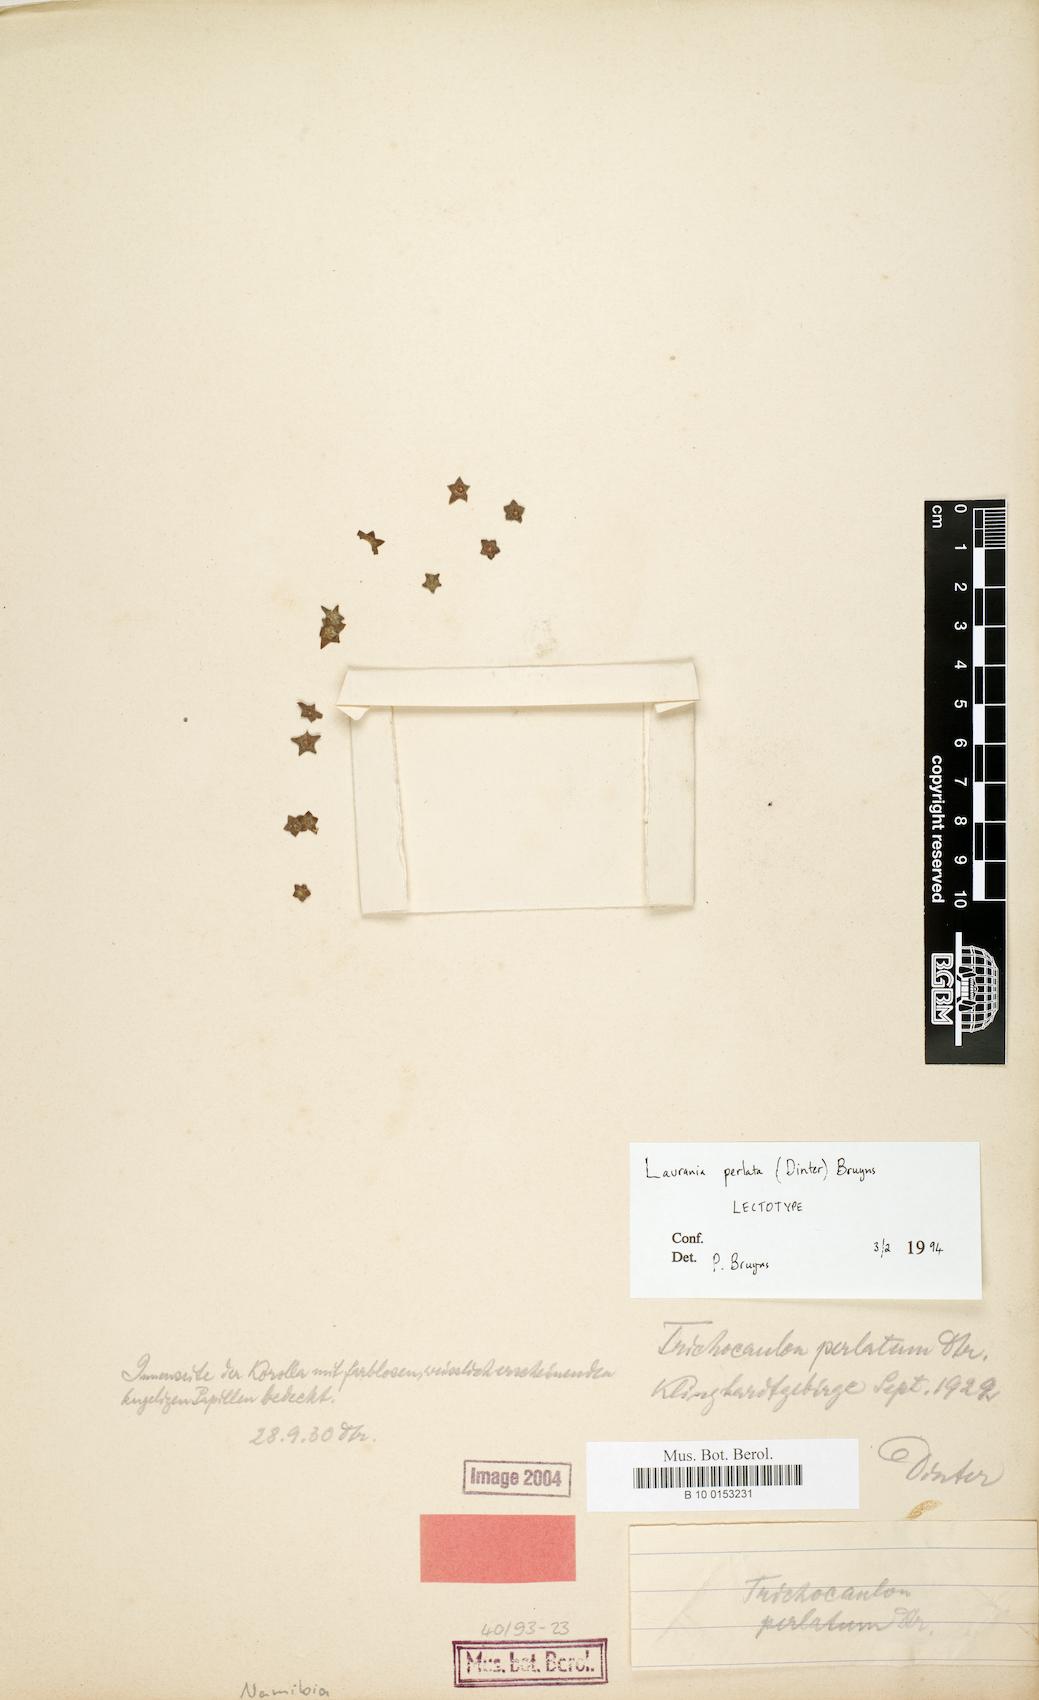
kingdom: Plantae
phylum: Tracheophyta
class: Magnoliopsida
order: Gentianales
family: Apocynaceae
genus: Ceropegia
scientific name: Ceropegia perlata
